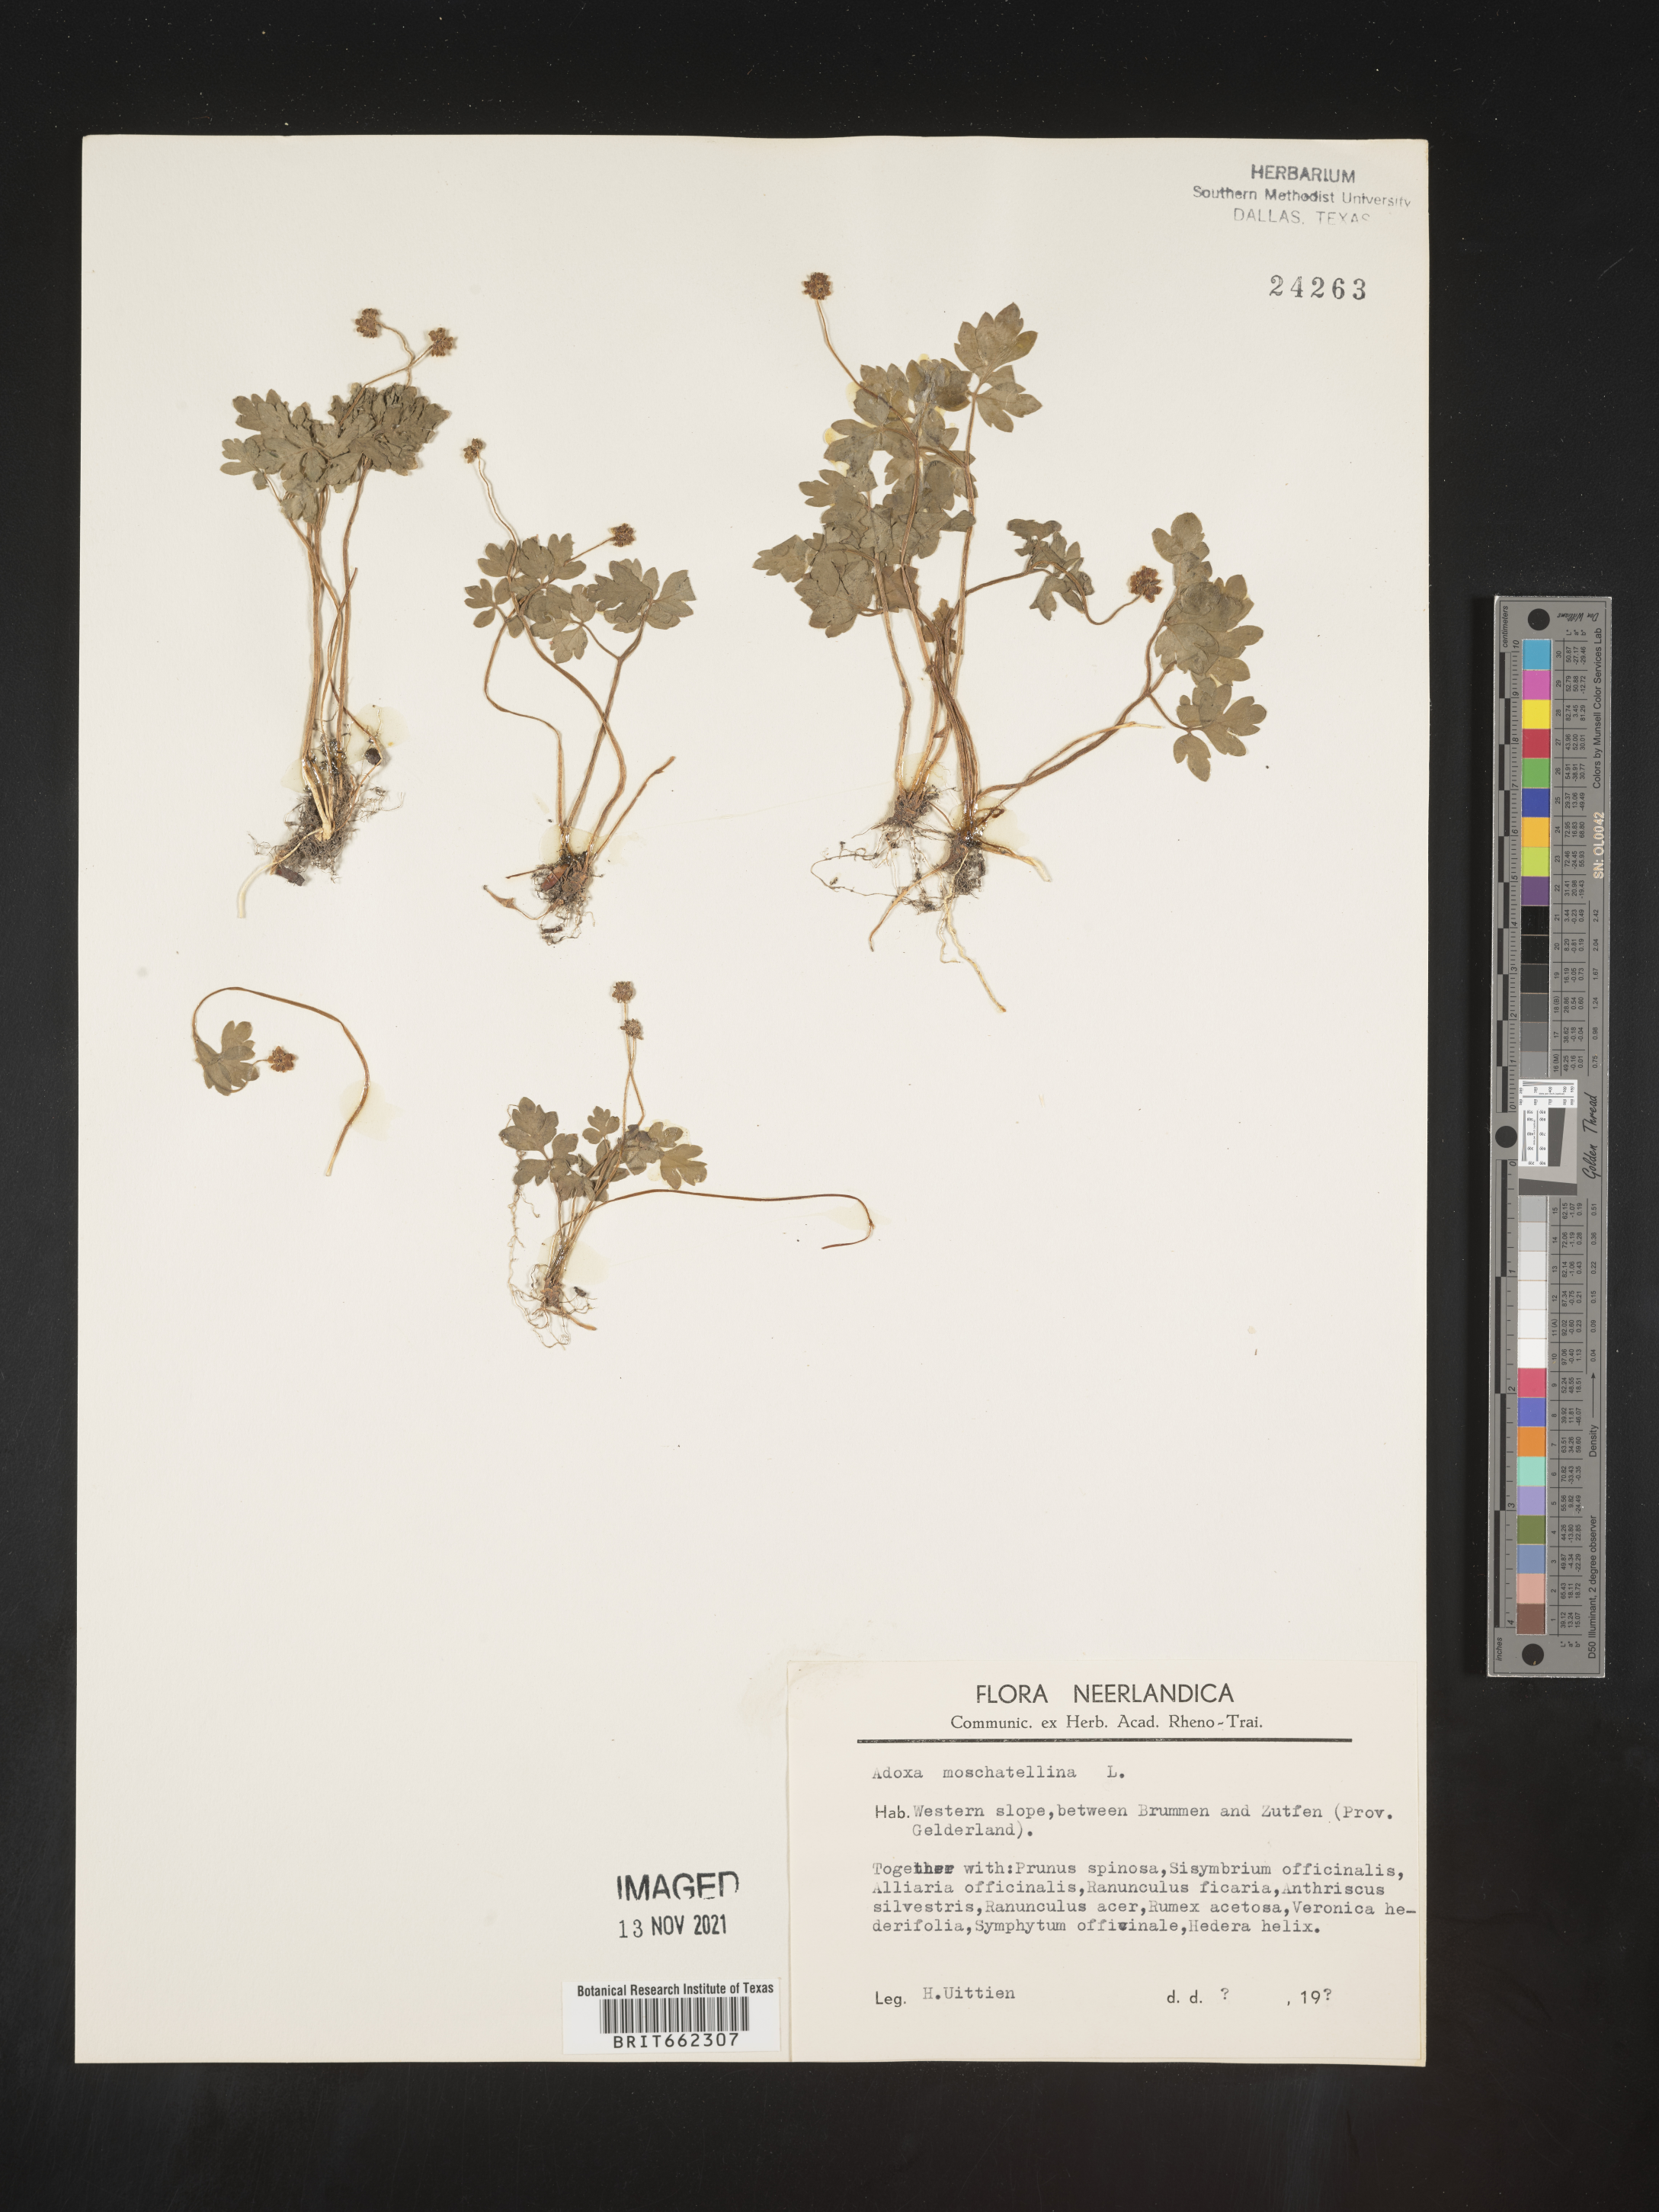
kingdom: Plantae
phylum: Tracheophyta
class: Magnoliopsida
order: Dipsacales
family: Viburnaceae
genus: Adoxa
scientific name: Adoxa
